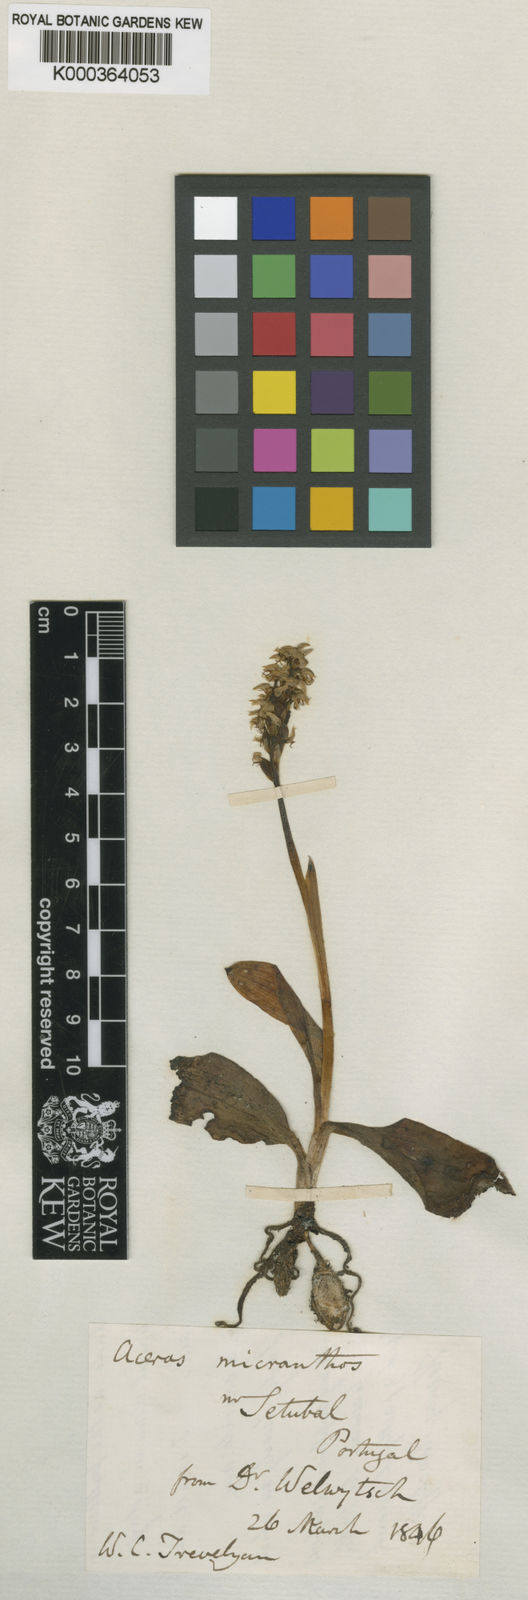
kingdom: Plantae
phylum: Tracheophyta
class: Liliopsida
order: Asparagales
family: Orchidaceae
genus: Neotinea
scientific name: Neotinea
